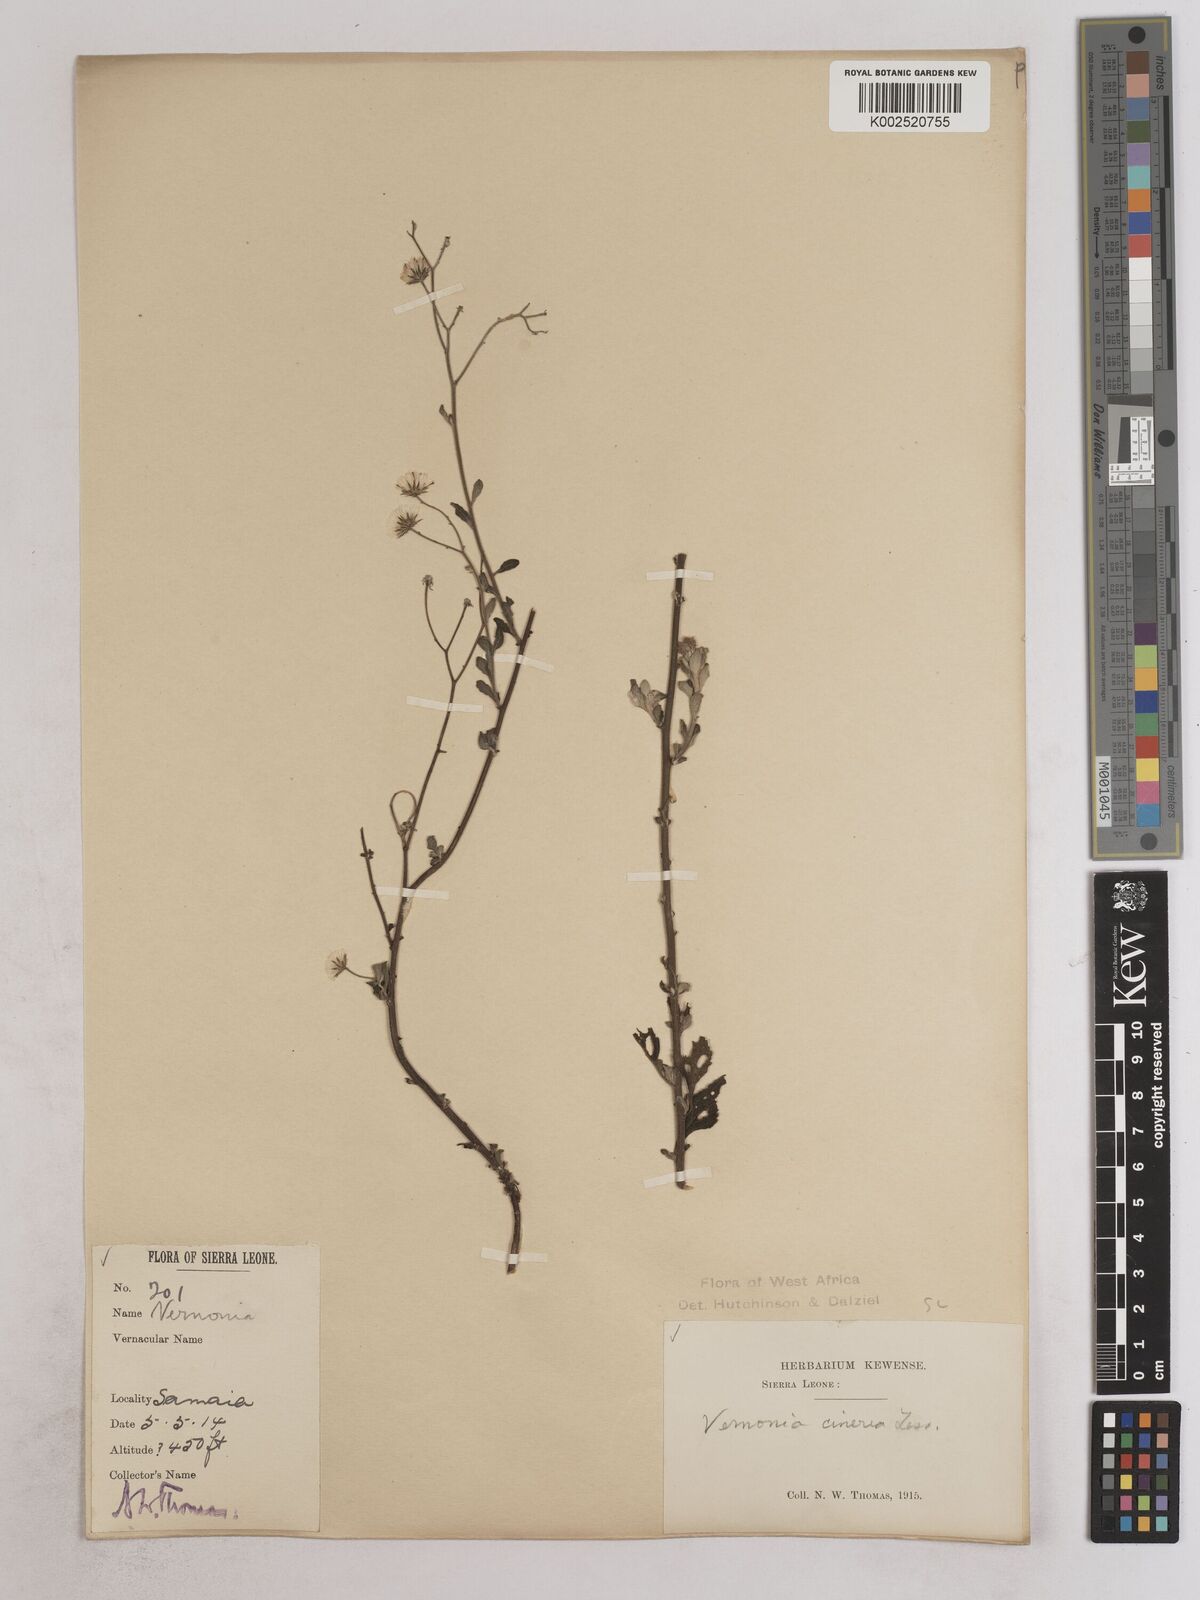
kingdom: Plantae
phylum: Tracheophyta
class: Magnoliopsida
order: Asterales
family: Asteraceae
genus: Cyanthillium
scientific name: Cyanthillium cinereum
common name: Little ironweed
